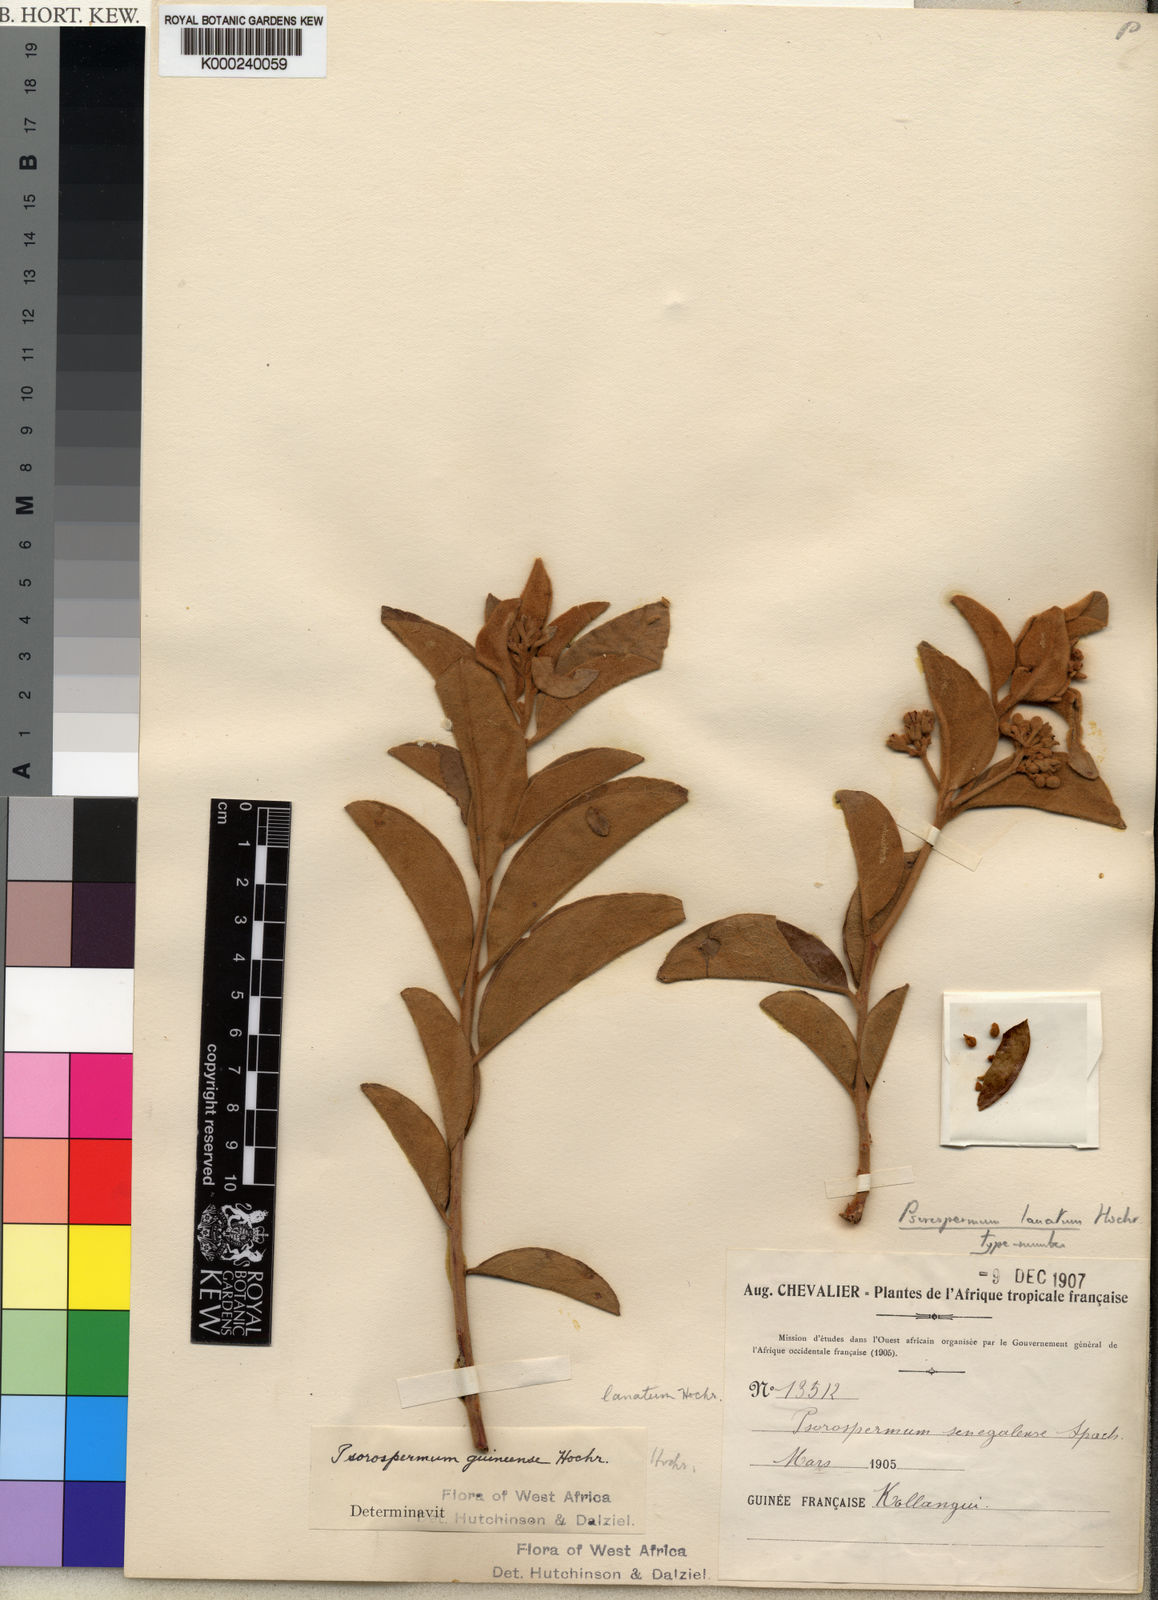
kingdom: Plantae
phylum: Tracheophyta
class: Magnoliopsida
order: Malpighiales
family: Hypericaceae
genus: Psorospermum
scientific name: Psorospermum lanatum
